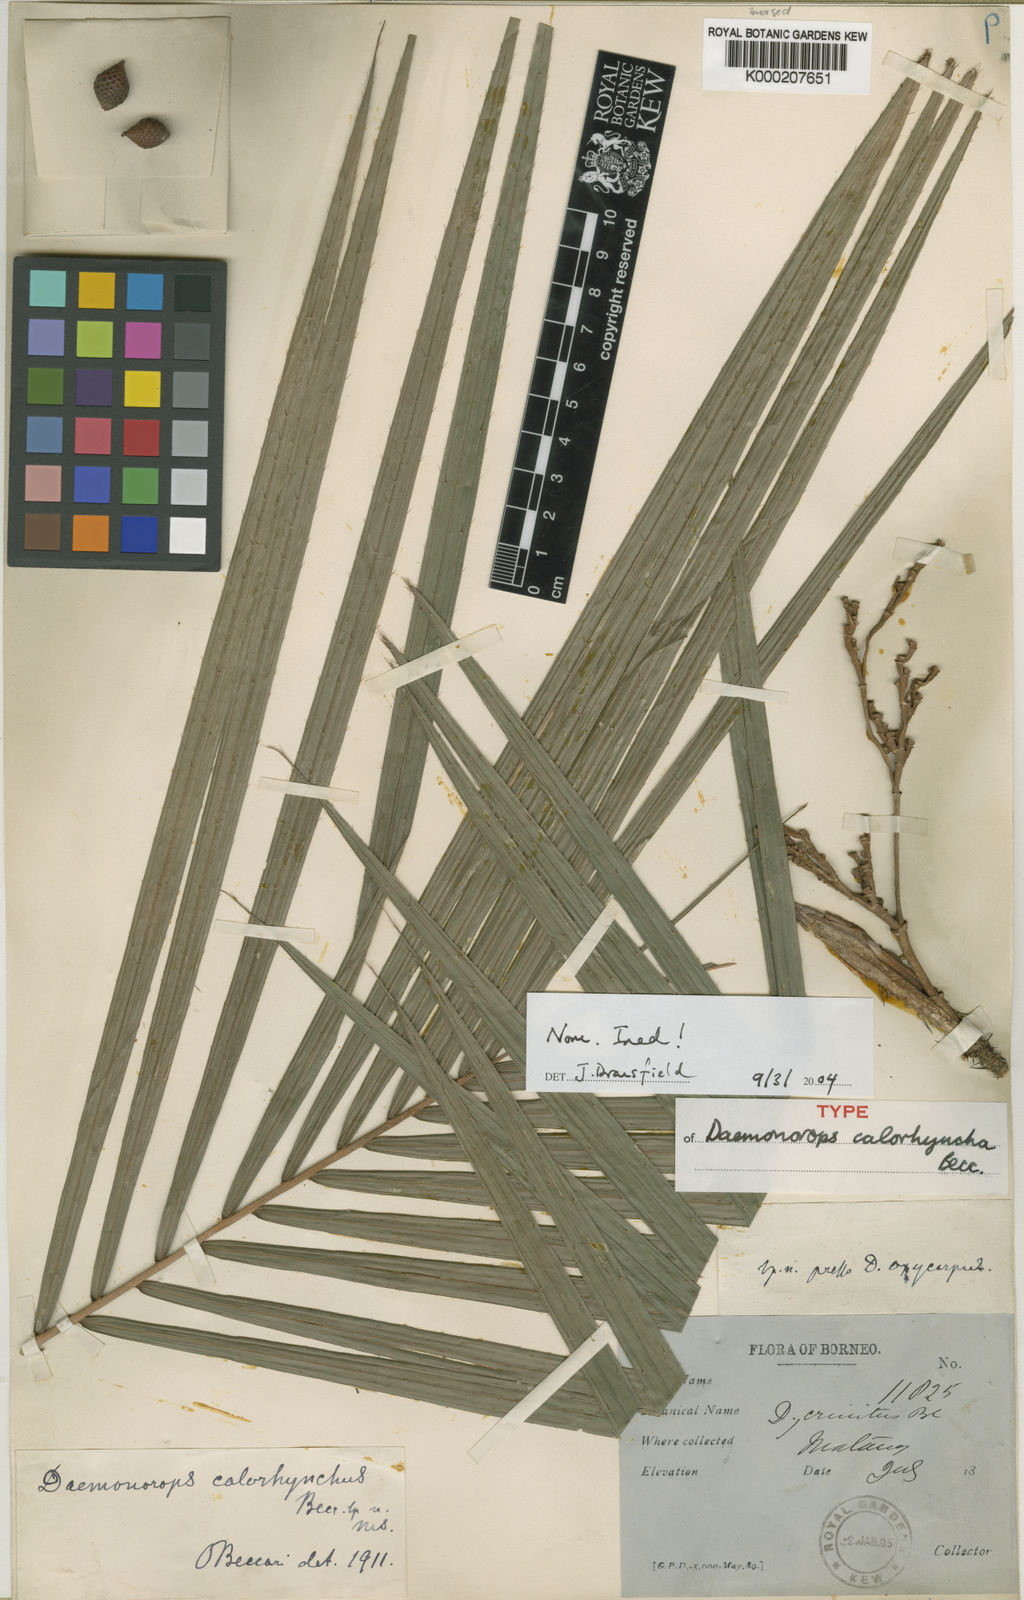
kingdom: Plantae
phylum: Tracheophyta
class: Liliopsida
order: Arecales
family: Arecaceae
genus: Daemonorops
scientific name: Daemonorops
